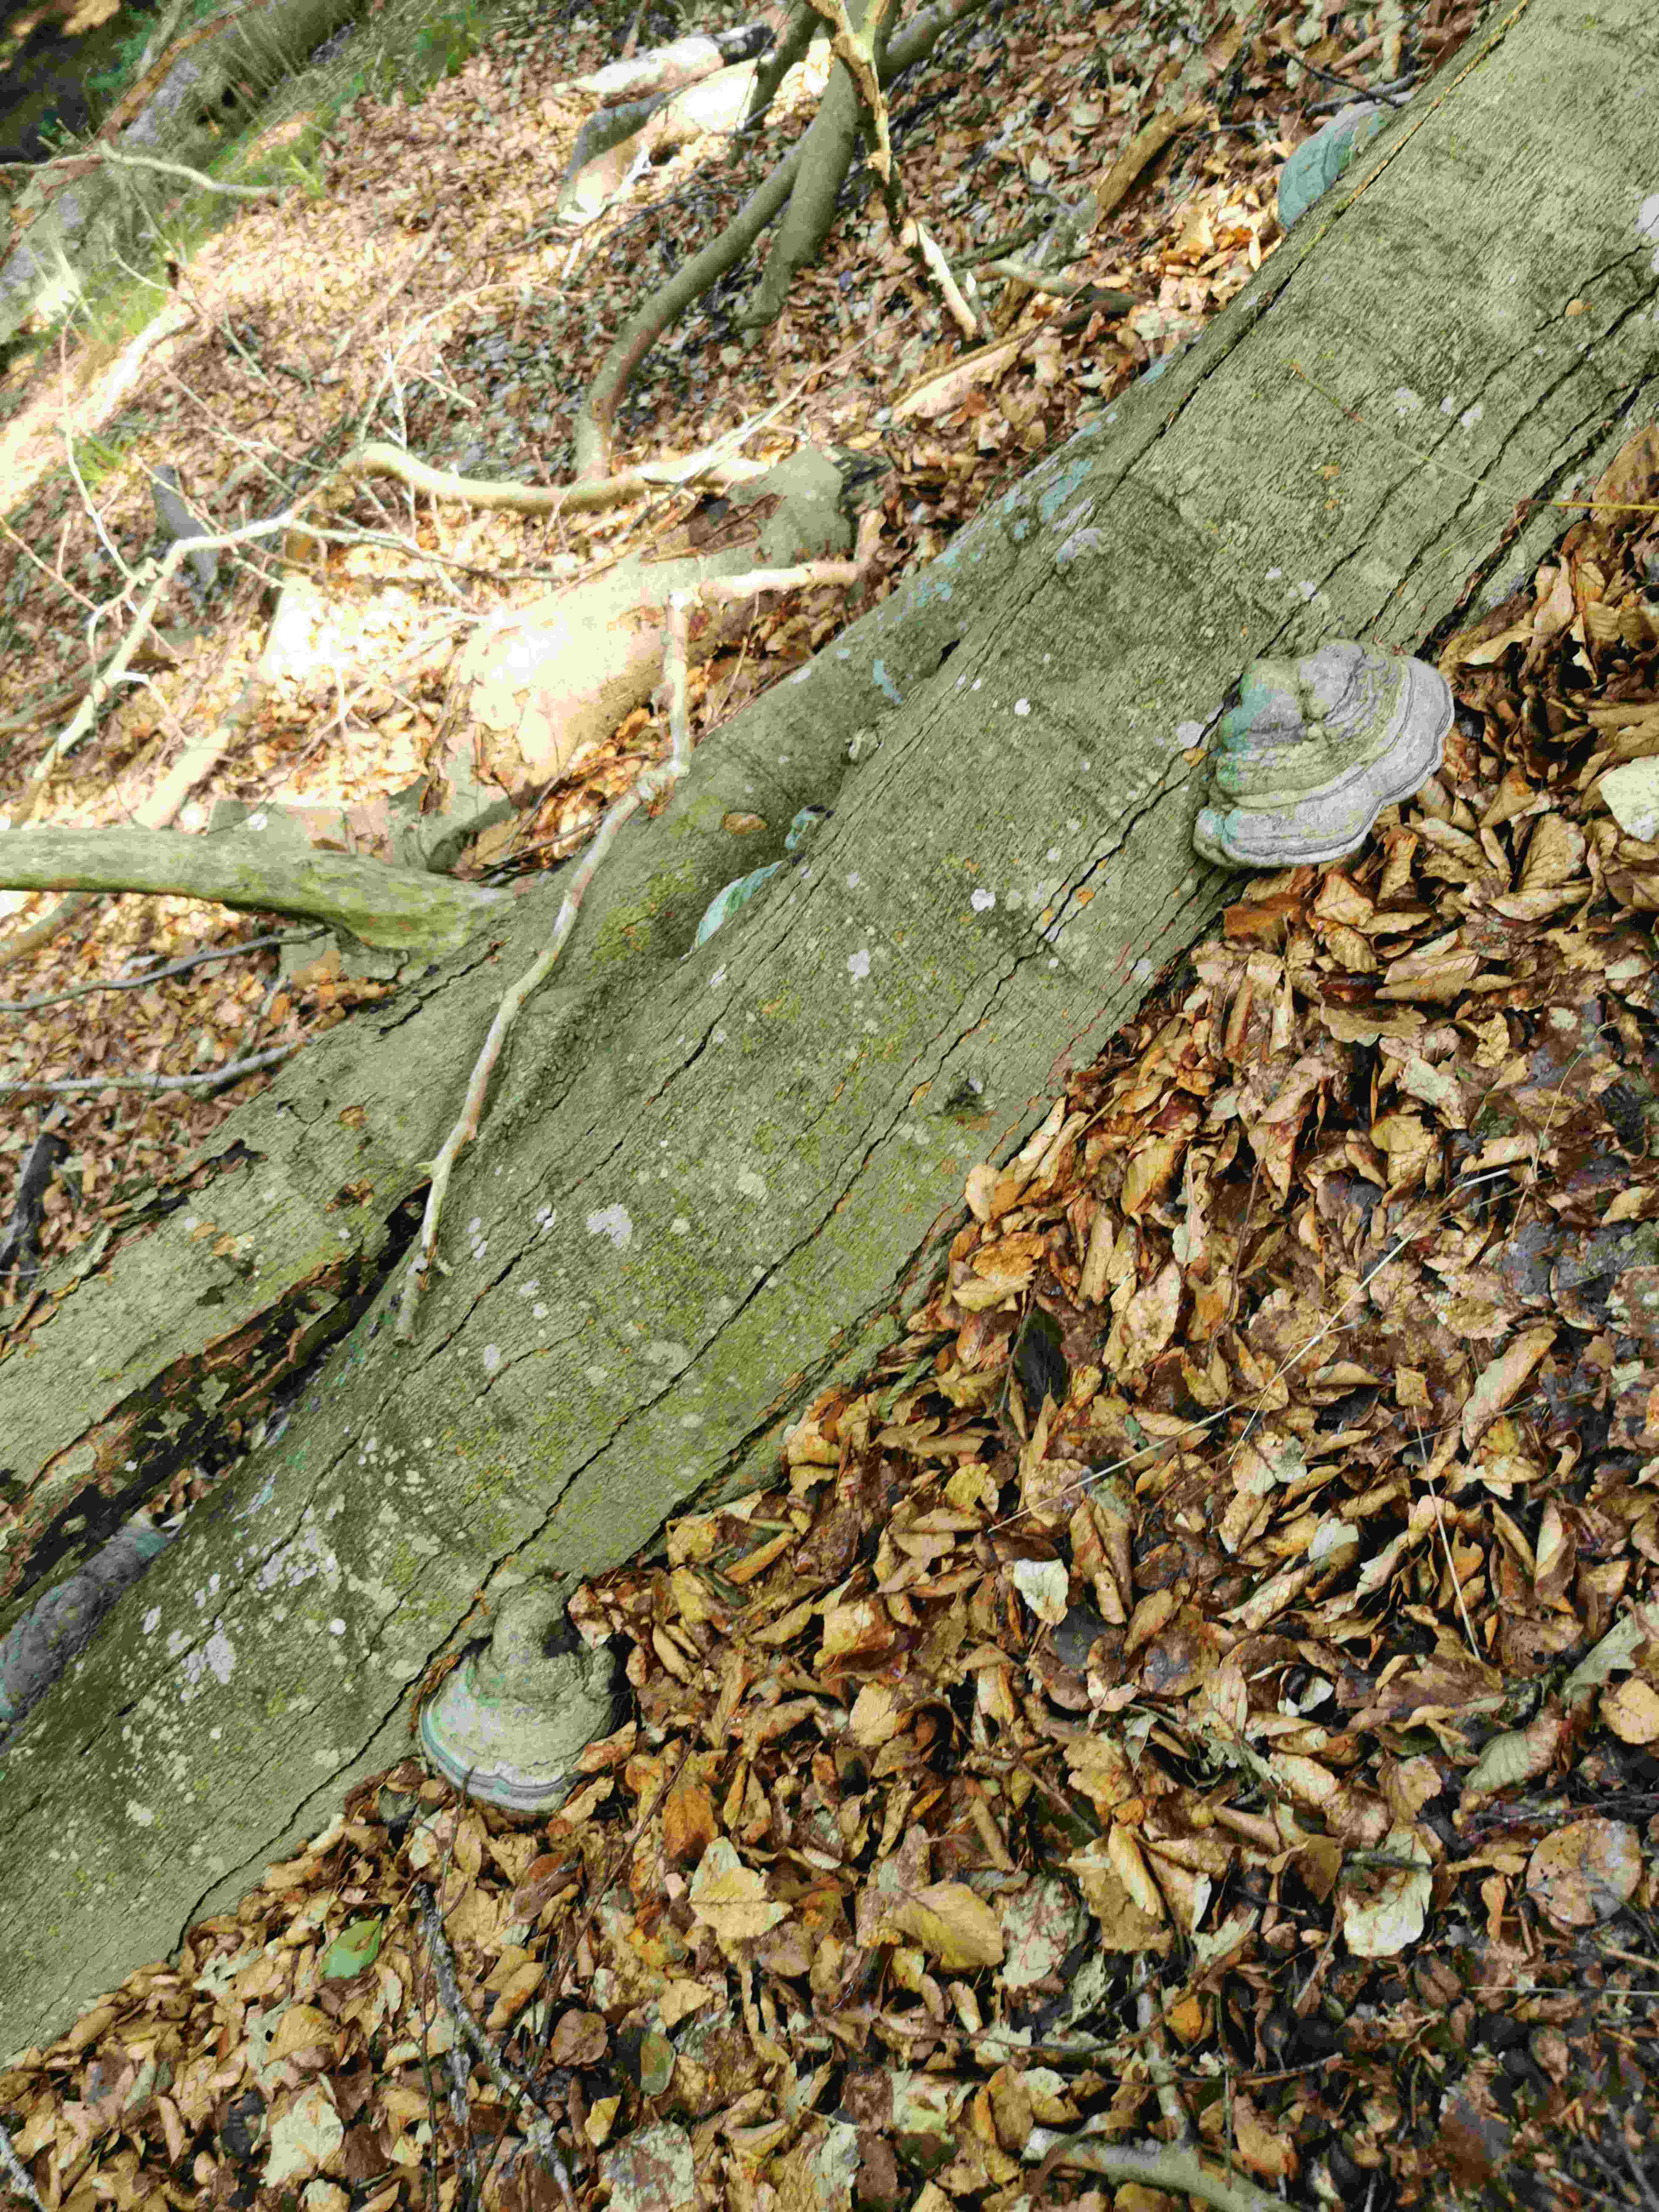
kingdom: Fungi
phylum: Basidiomycota
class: Agaricomycetes
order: Polyporales
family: Polyporaceae
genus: Fomes
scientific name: Fomes fomentarius
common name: tøndersvamp
